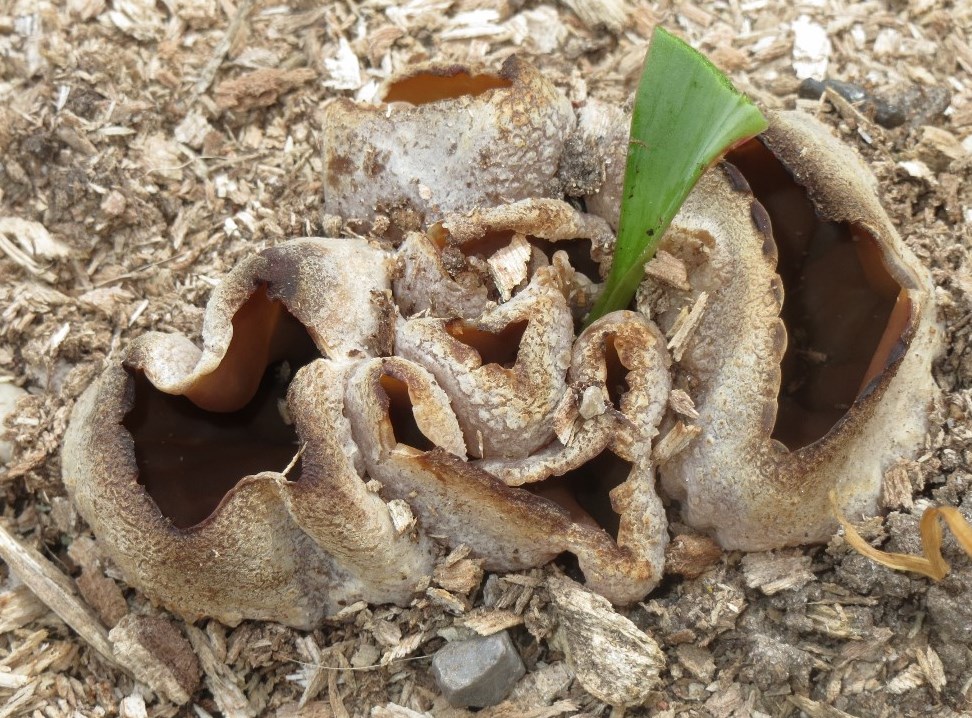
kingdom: Fungi
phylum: Ascomycota
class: Pezizomycetes
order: Pezizales
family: Pezizaceae
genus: Peziza
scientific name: Peziza vesiculosa
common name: blære-bægersvamp
